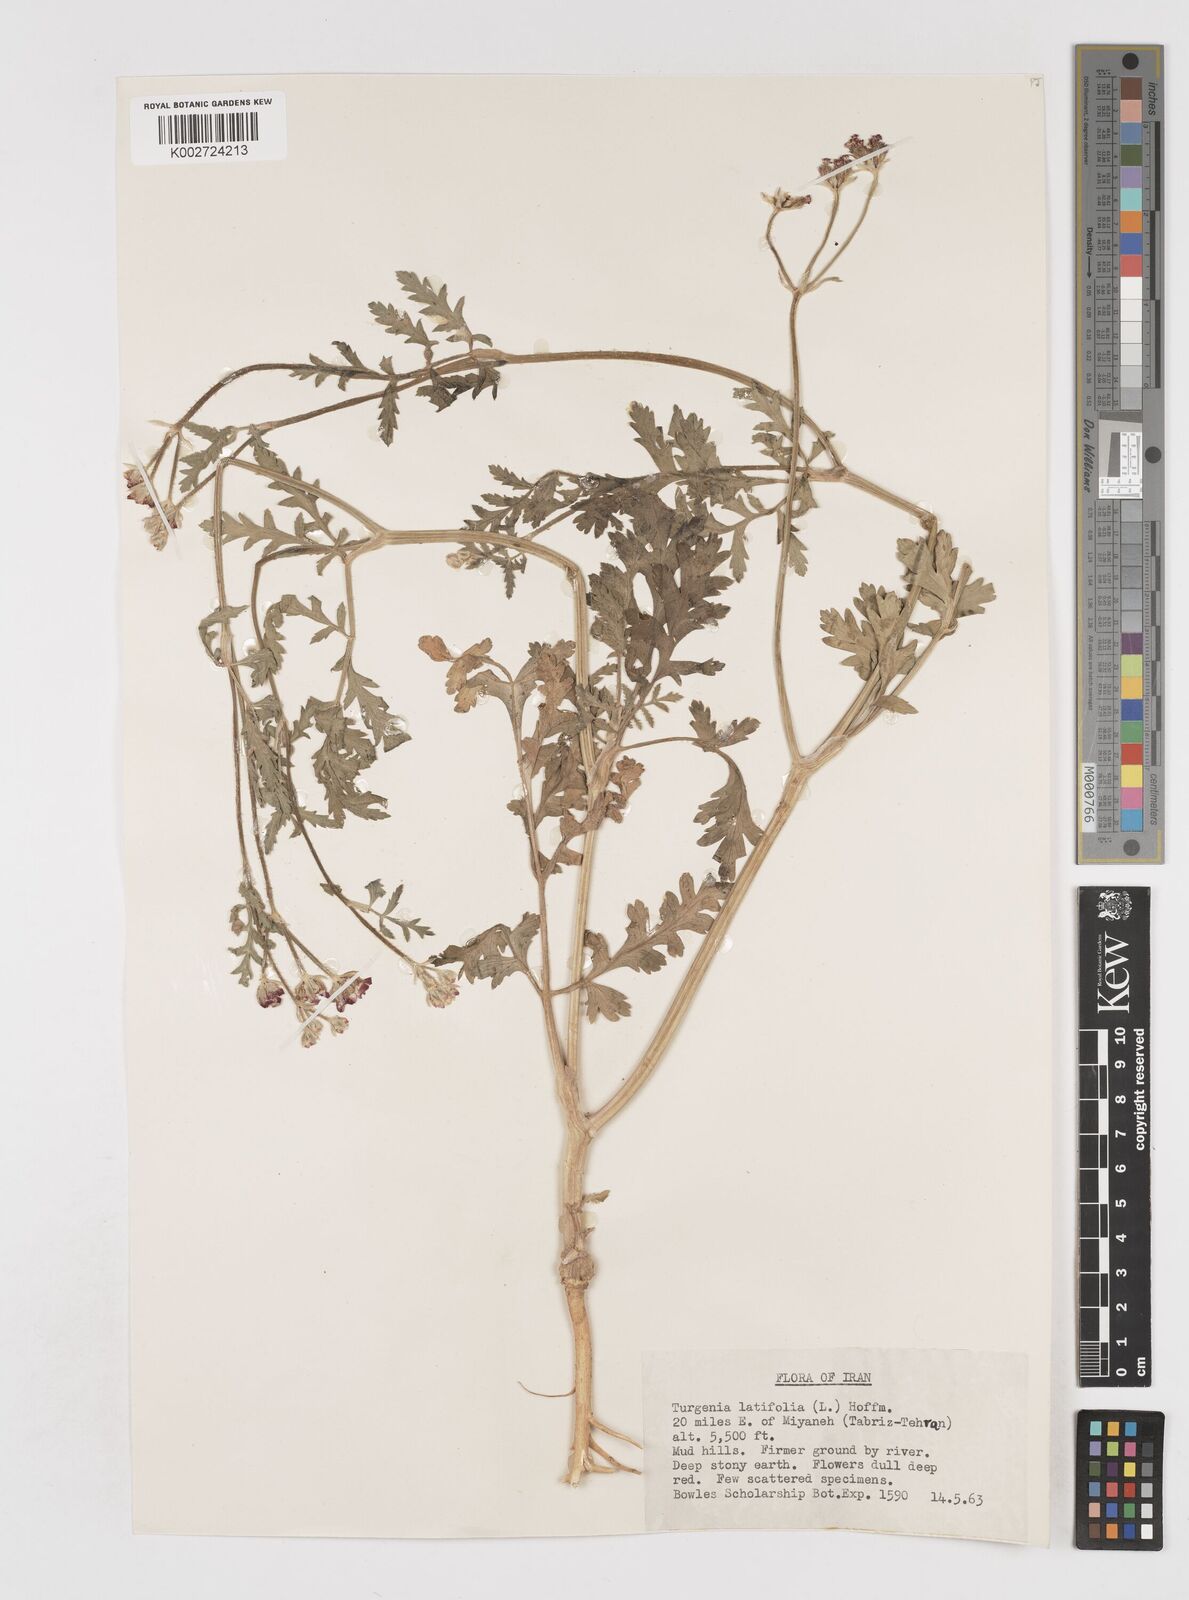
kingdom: Plantae
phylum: Tracheophyta
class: Magnoliopsida
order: Apiales
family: Apiaceae
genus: Turgenia
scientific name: Turgenia latifolia
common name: Greater bur-parsley
